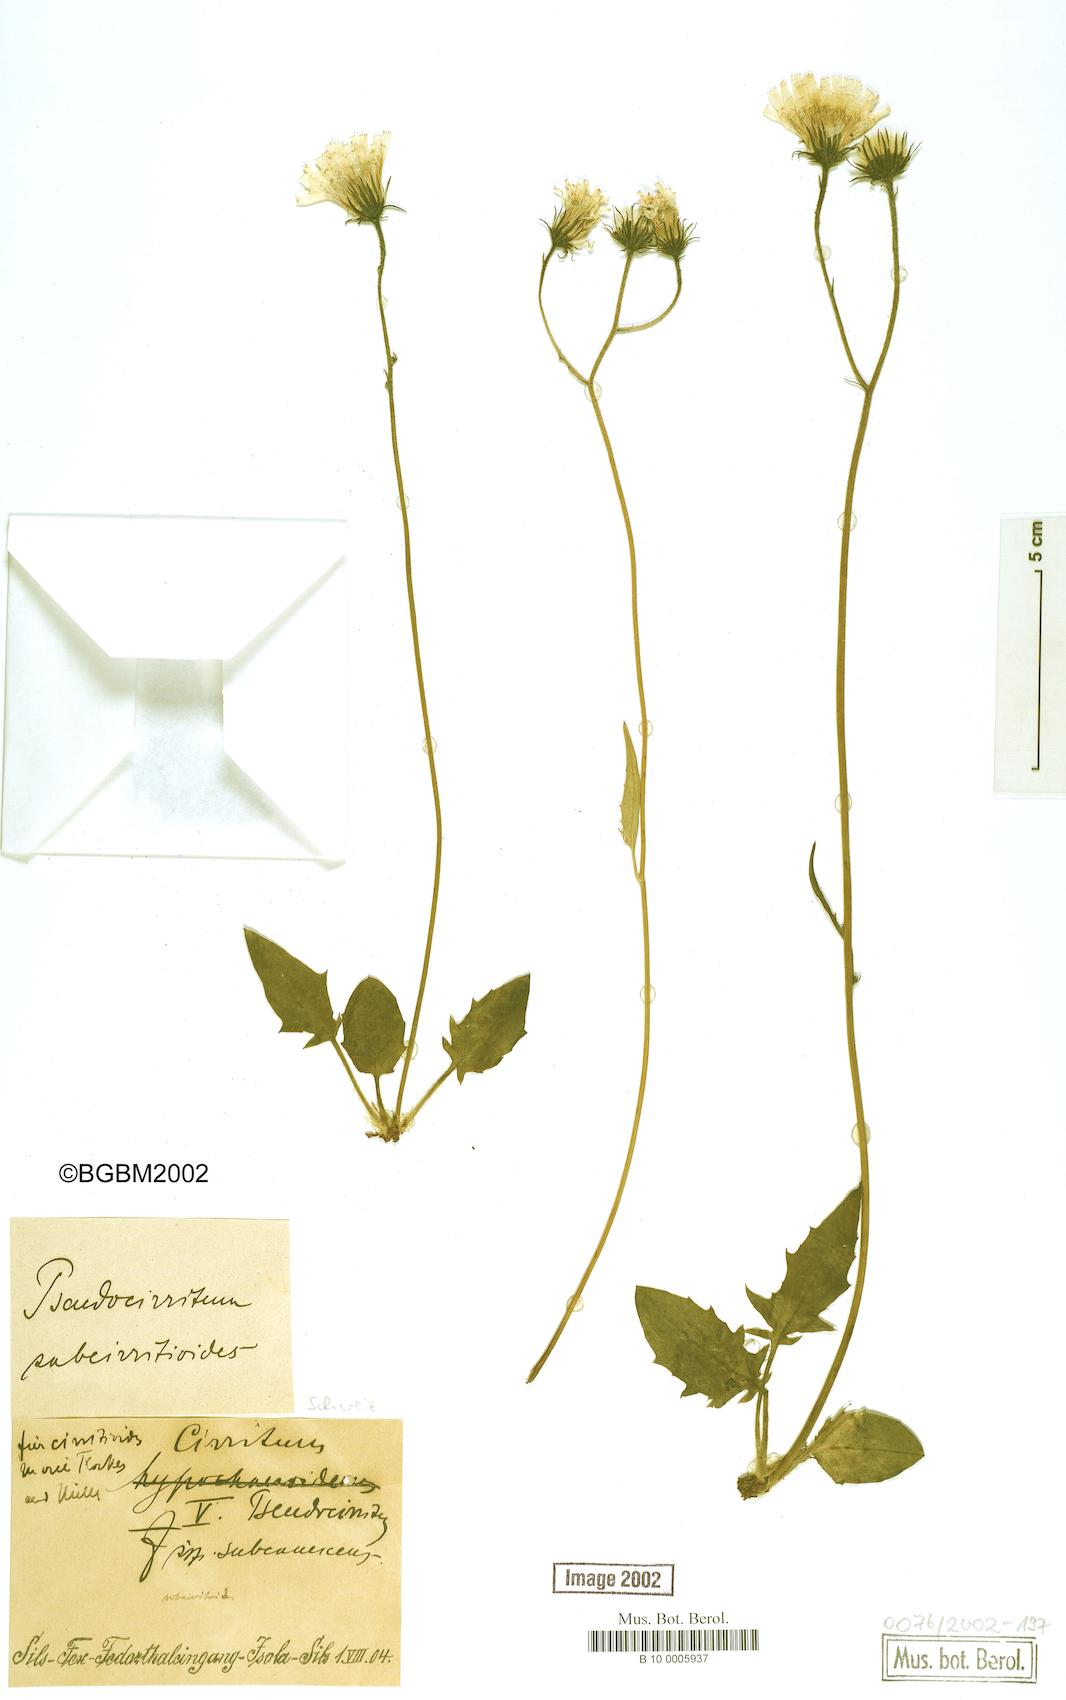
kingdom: Plantae
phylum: Tracheophyta
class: Magnoliopsida
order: Asterales
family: Asteraceae
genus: Hieracium
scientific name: Hieracium cirritum
